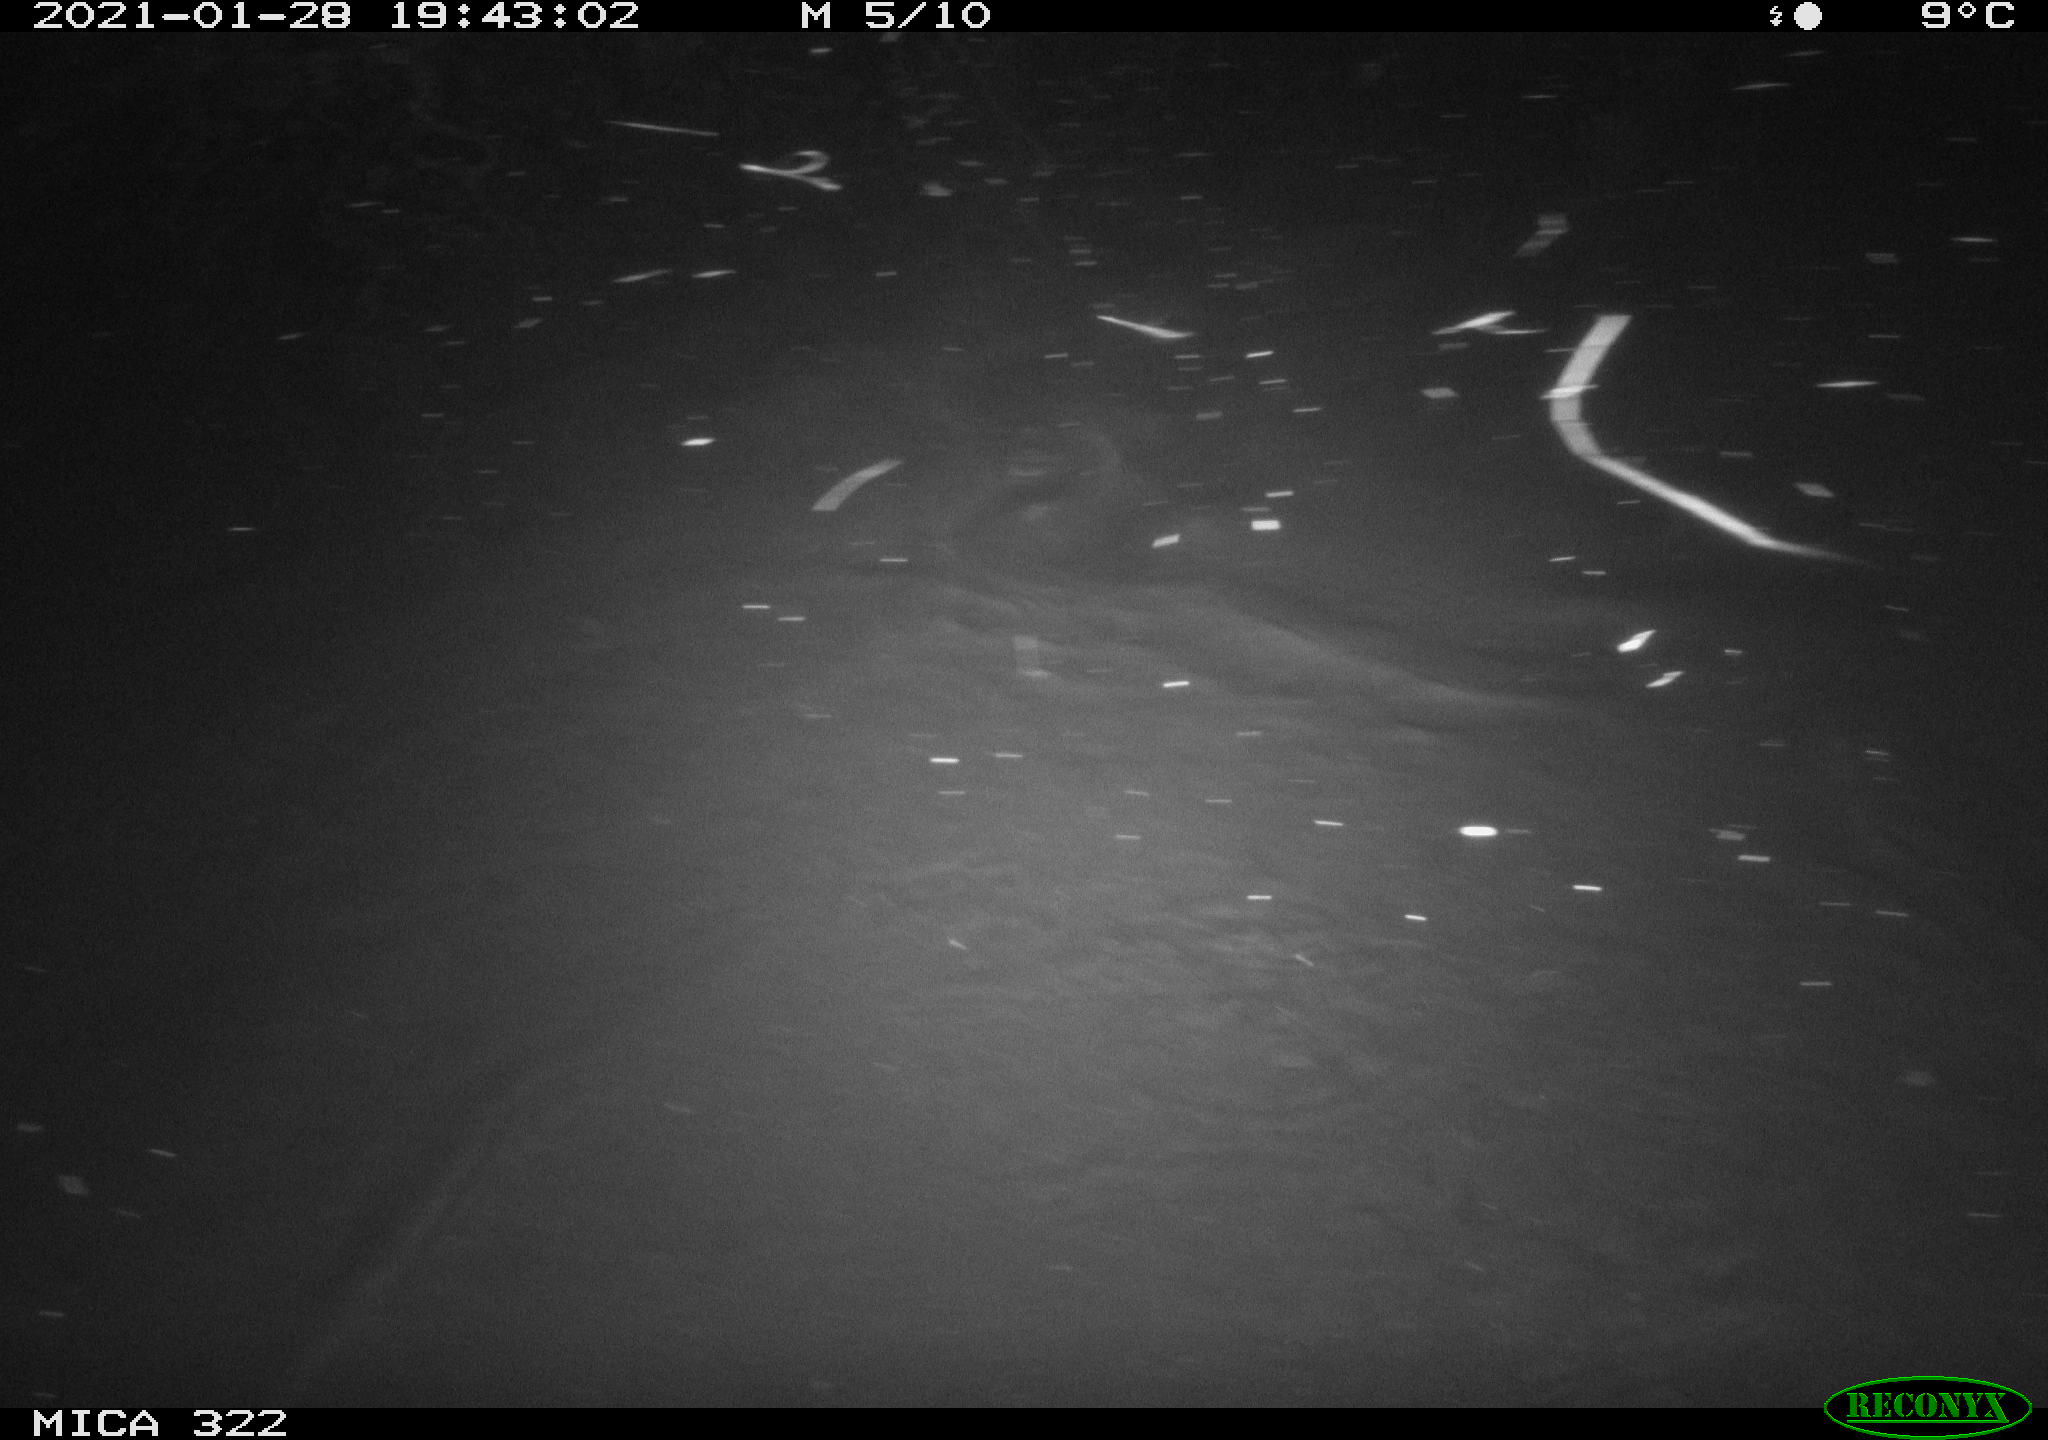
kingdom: Animalia
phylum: Chordata
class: Mammalia
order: Rodentia
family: Muridae
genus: Rattus
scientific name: Rattus norvegicus
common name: Brown rat
